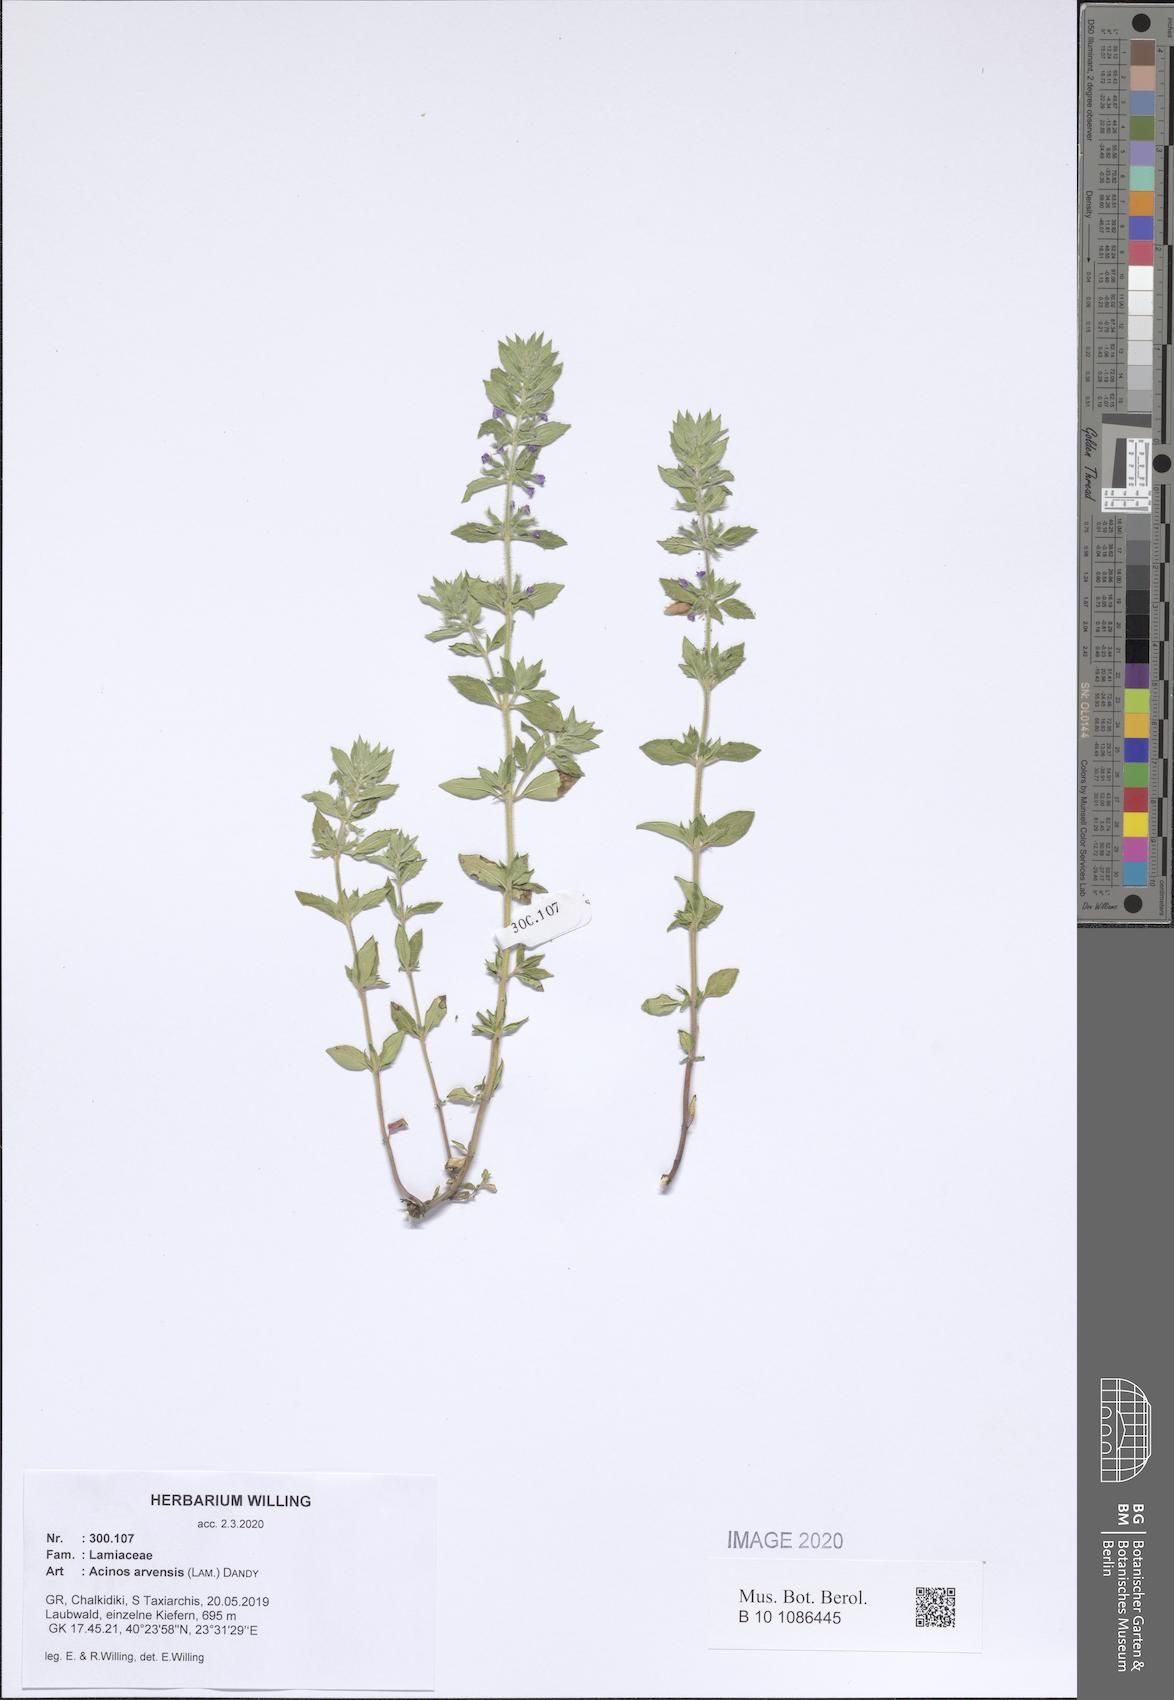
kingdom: Plantae
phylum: Tracheophyta
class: Magnoliopsida
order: Lamiales
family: Lamiaceae
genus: Clinopodium
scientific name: Clinopodium acinos
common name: Basil thyme
